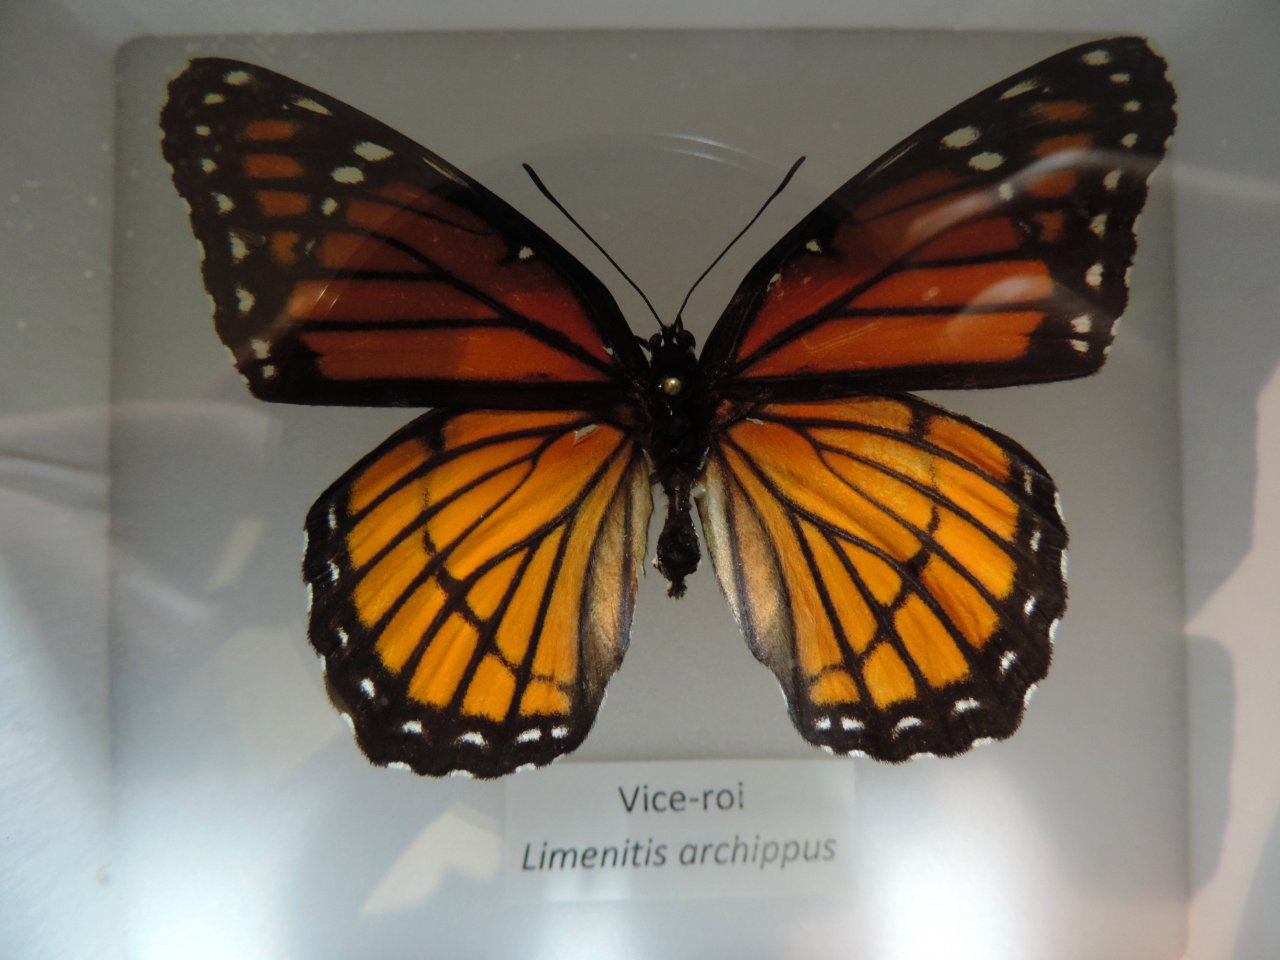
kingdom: Animalia
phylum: Arthropoda
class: Insecta
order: Lepidoptera
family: Nymphalidae
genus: Limenitis
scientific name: Limenitis archippus
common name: Viceroy
